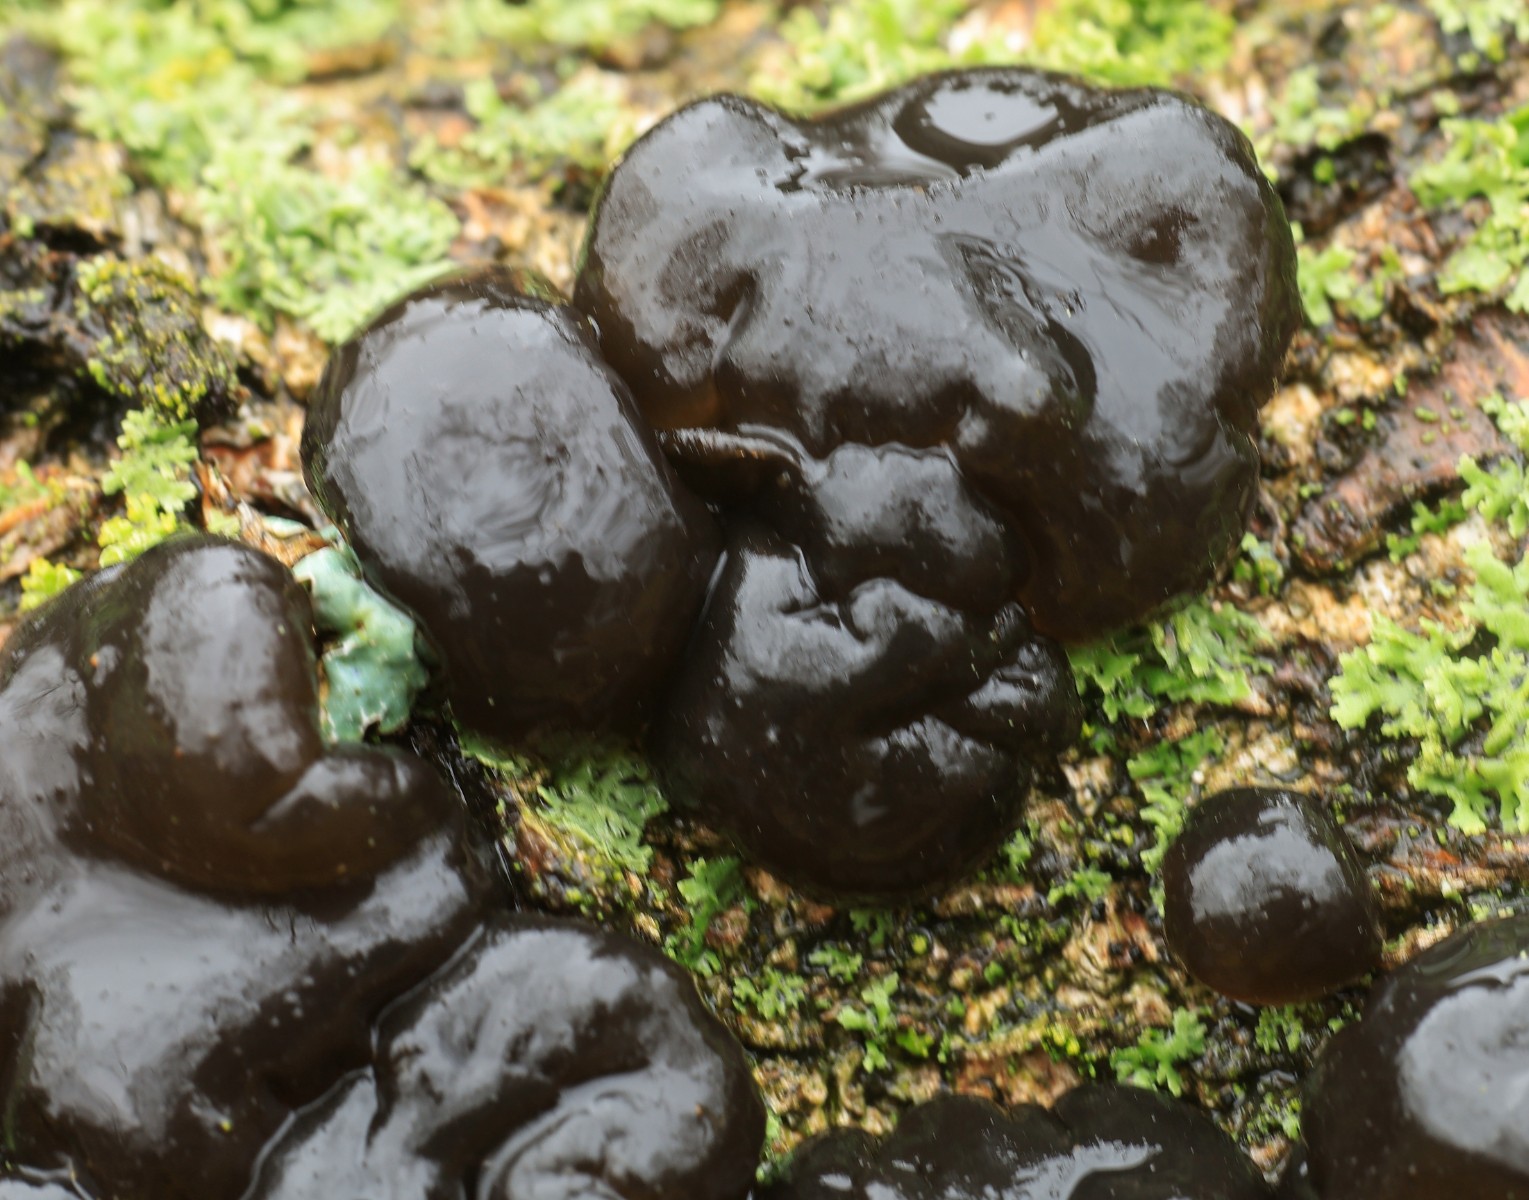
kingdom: Fungi
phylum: Basidiomycota
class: Agaricomycetes
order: Auriculariales
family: Auriculariaceae
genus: Exidia
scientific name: Exidia nigricans
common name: almindelig bævretop
